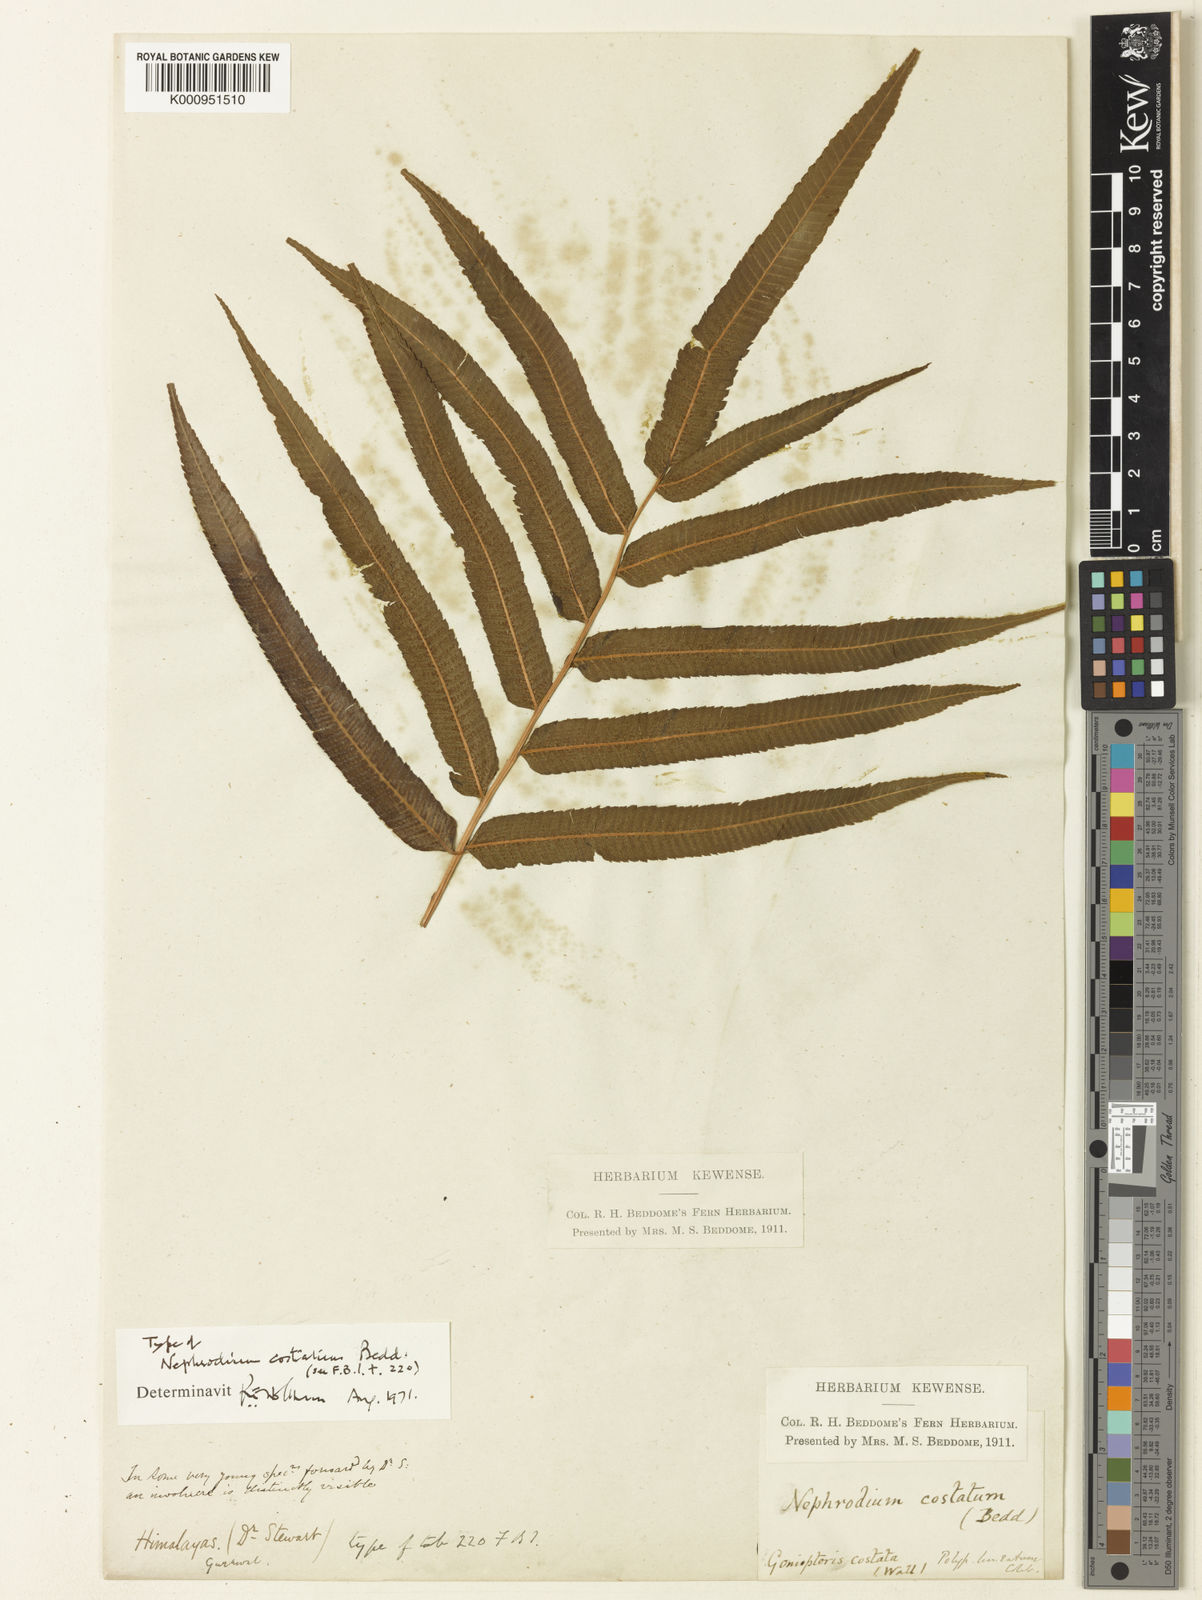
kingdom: Plantae
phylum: Tracheophyta
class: Polypodiopsida
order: Polypodiales
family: Thelypteridaceae
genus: Menisciopsis
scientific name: Menisciopsis penangiana
